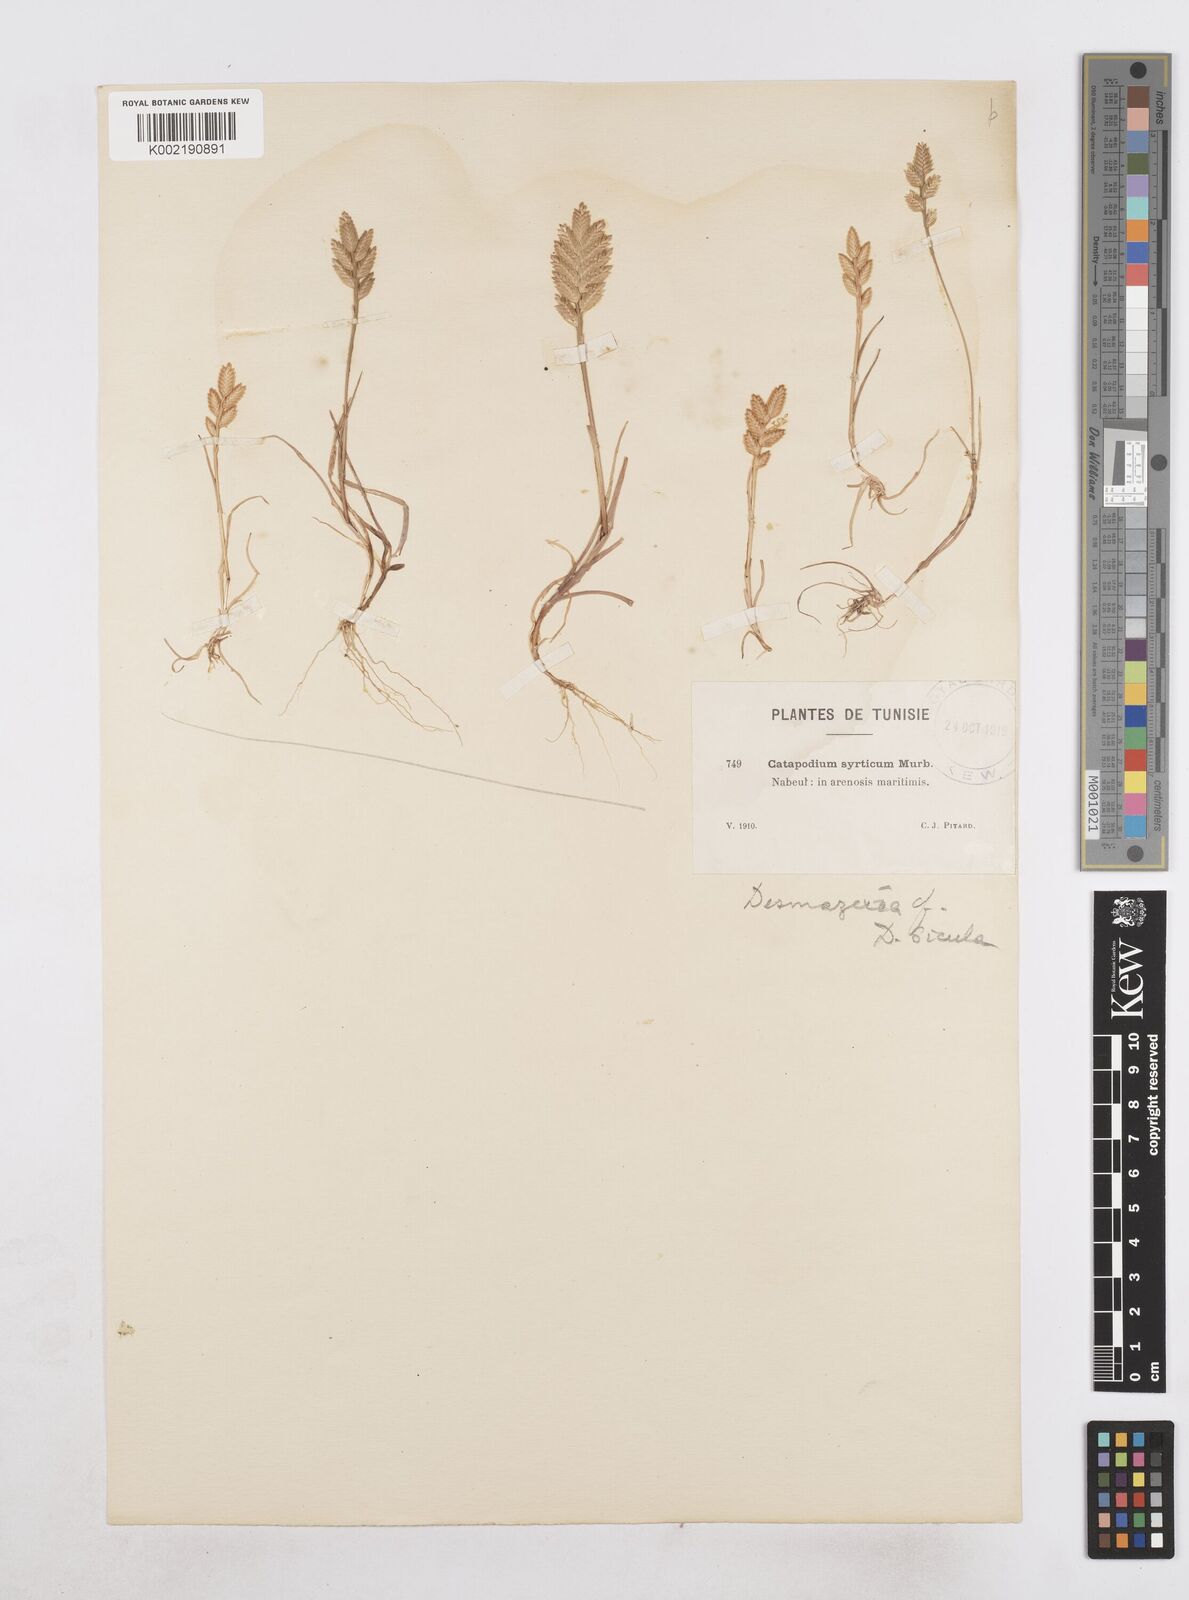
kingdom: Plantae
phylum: Tracheophyta
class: Liliopsida
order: Poales
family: Poaceae
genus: Desmazeria
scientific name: Desmazeria sicula
